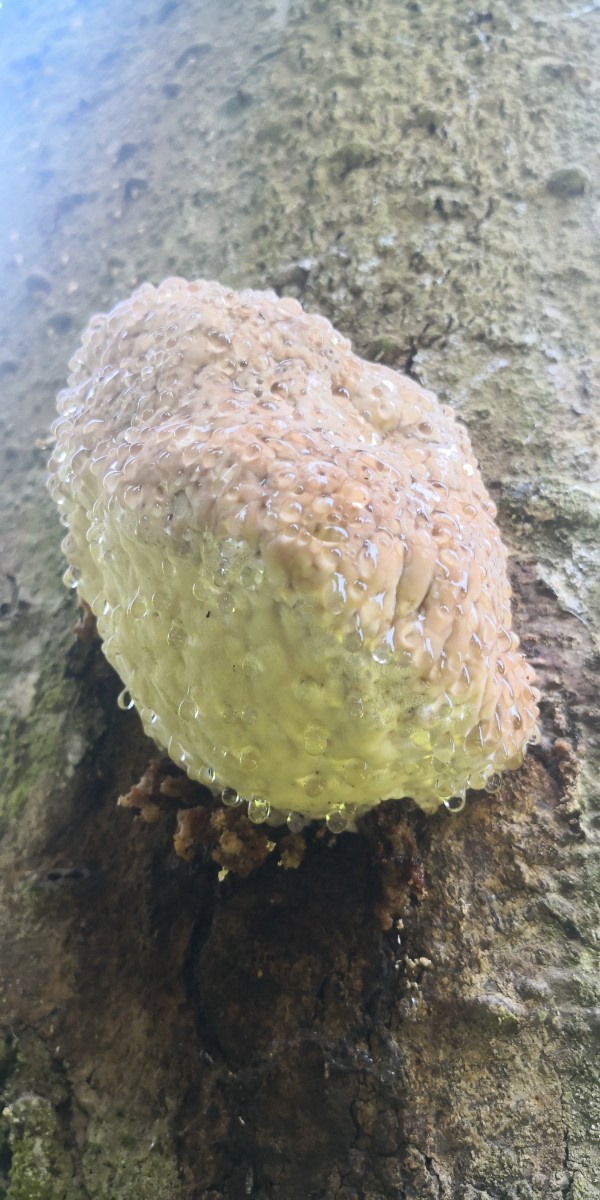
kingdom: Fungi
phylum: Basidiomycota
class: Agaricomycetes
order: Polyporales
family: Fomitopsidaceae
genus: Fomitopsis
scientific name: Fomitopsis pinicola
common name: randbæltet hovporesvamp
